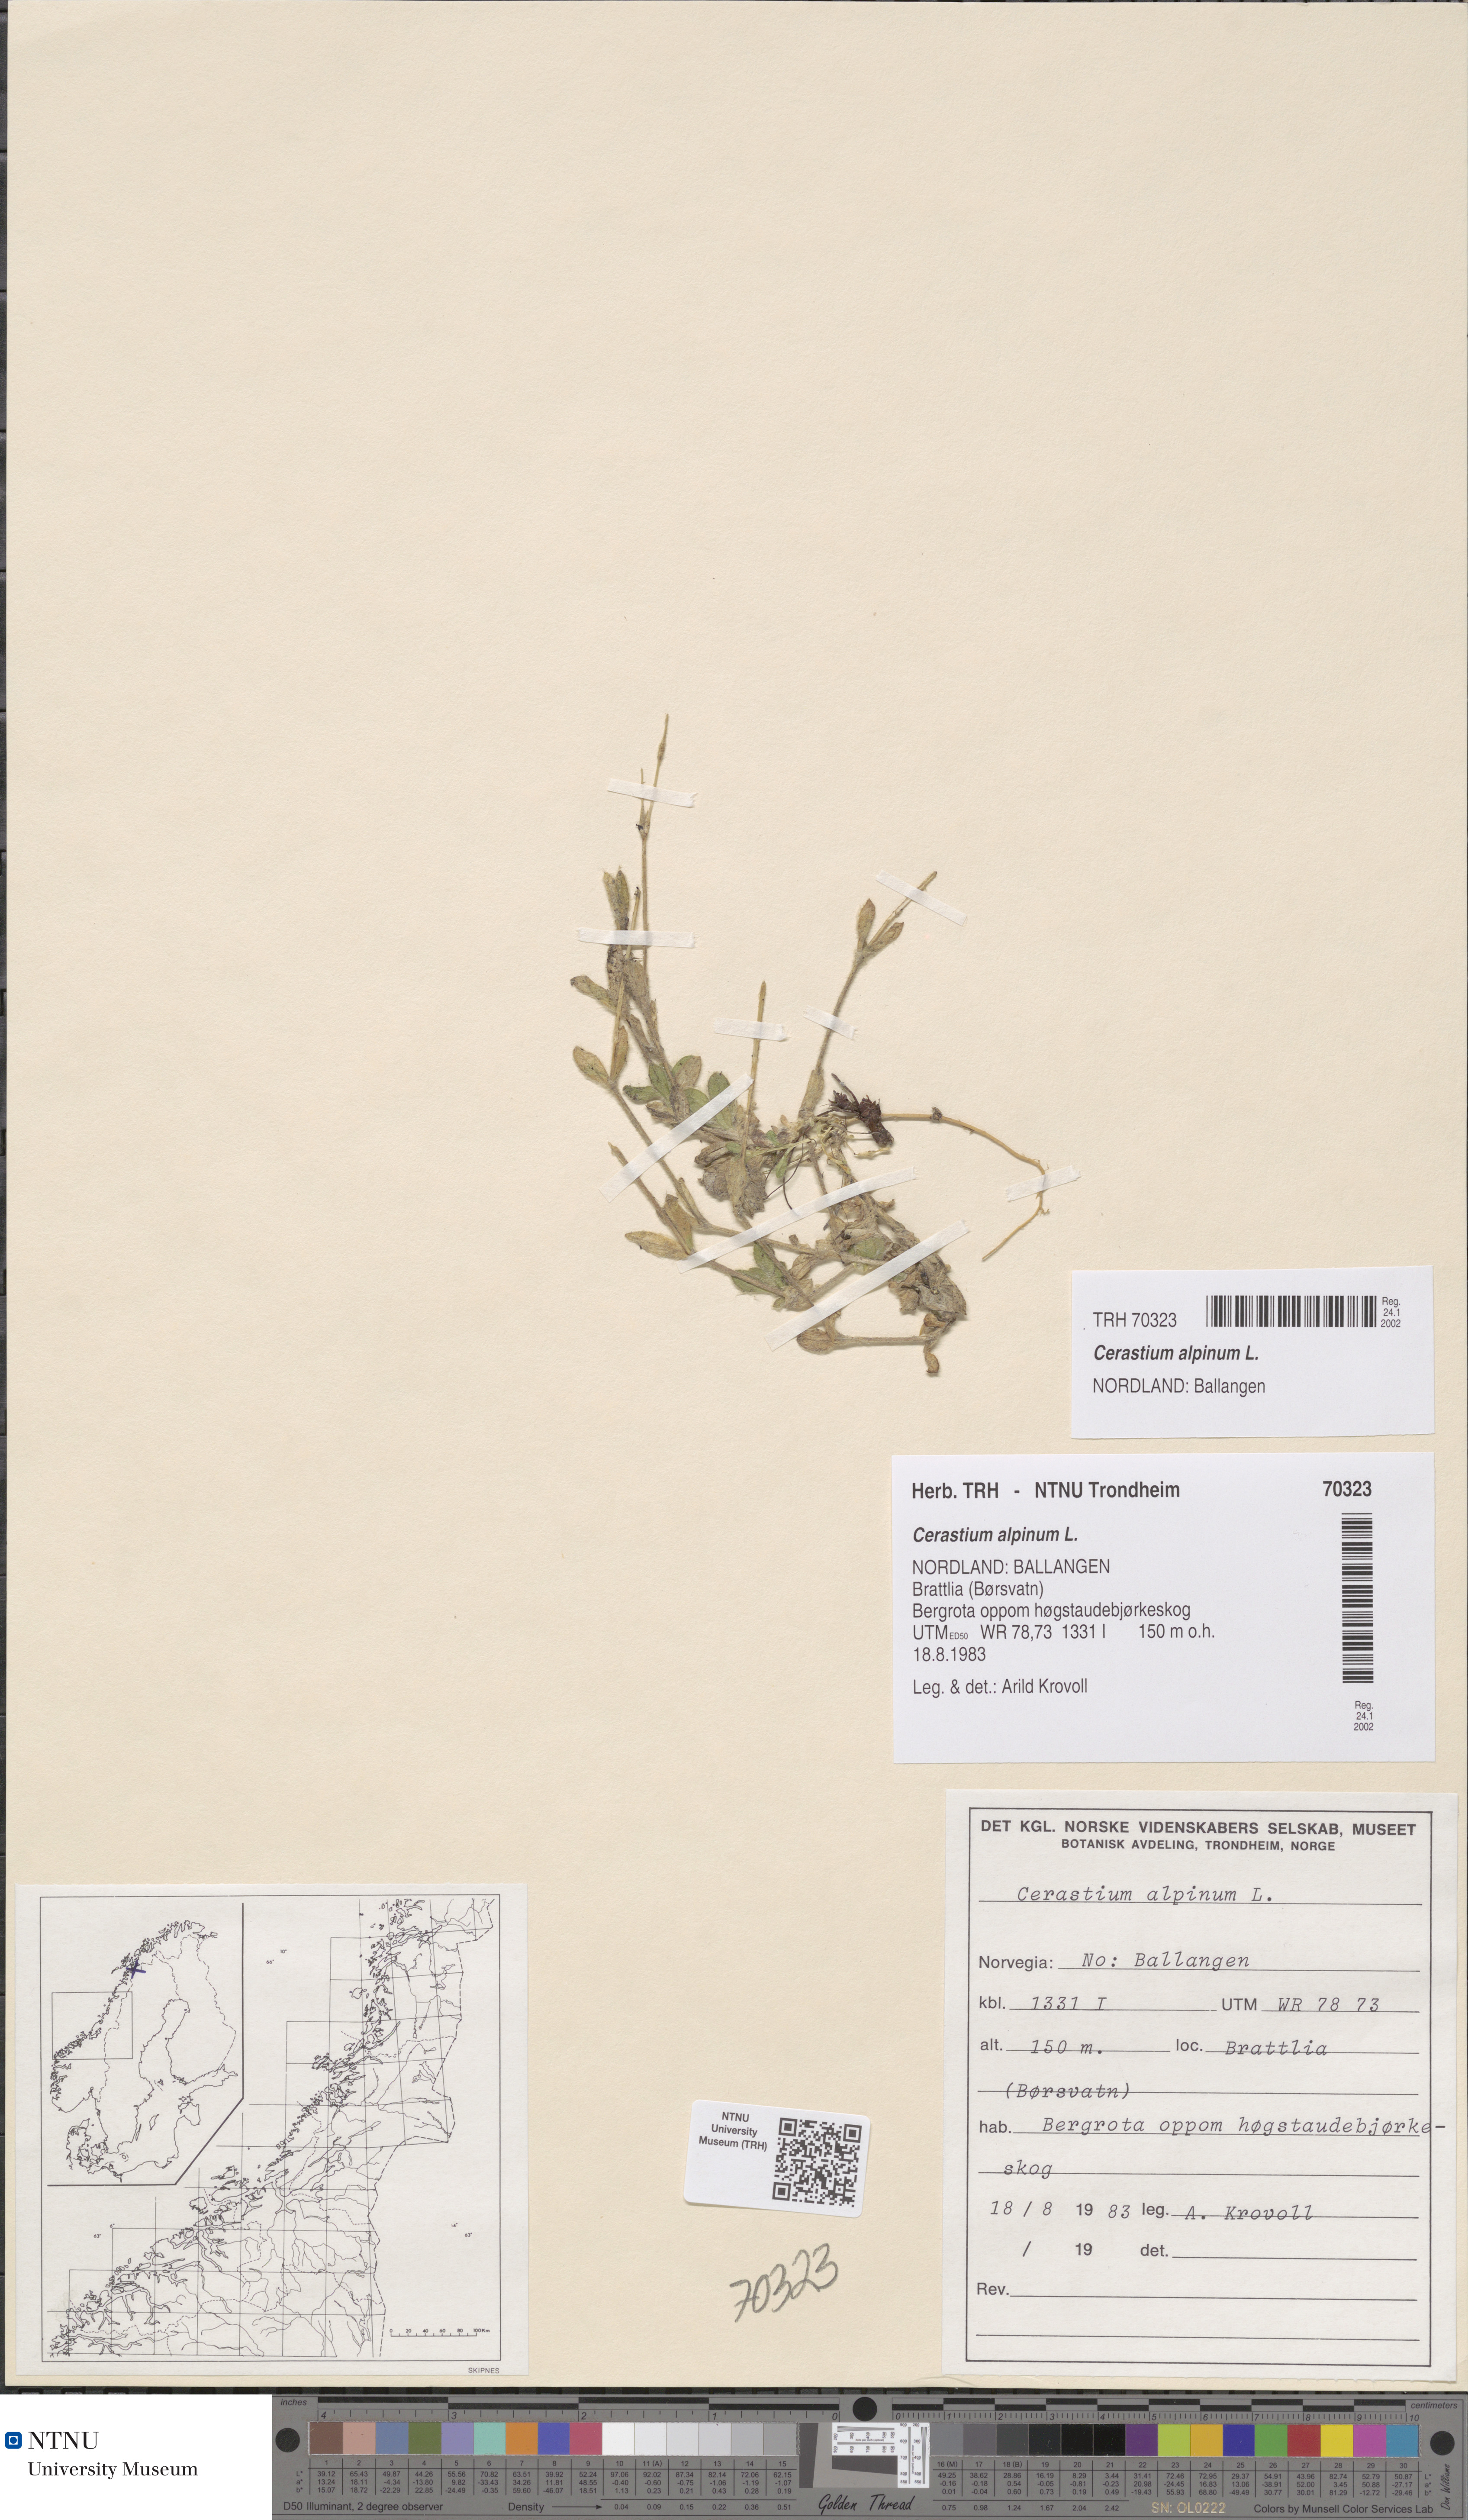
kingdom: Plantae
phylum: Tracheophyta
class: Magnoliopsida
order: Caryophyllales
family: Caryophyllaceae
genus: Cerastium
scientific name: Cerastium alpinum
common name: Alpine mouse-ear
